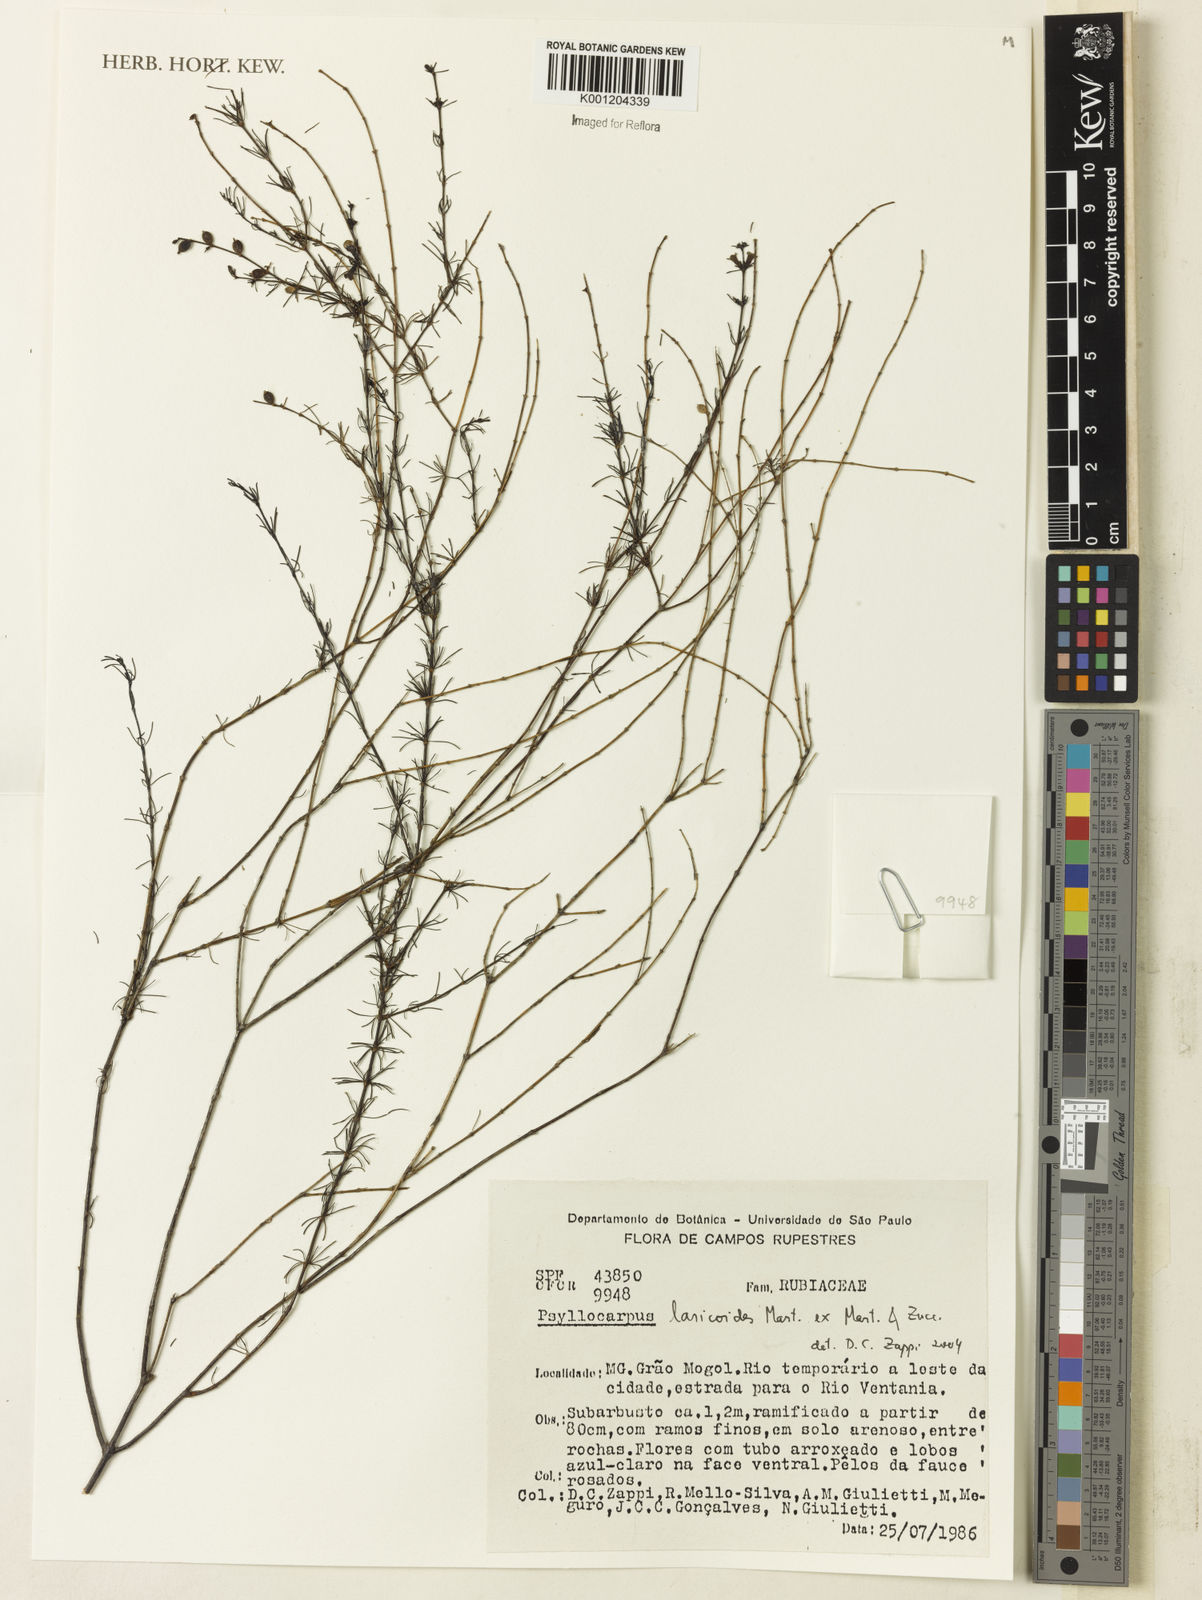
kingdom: Plantae
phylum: Tracheophyta
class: Magnoliopsida
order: Gentianales
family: Rubiaceae
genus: Psyllocarpus
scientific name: Psyllocarpus laricoides
